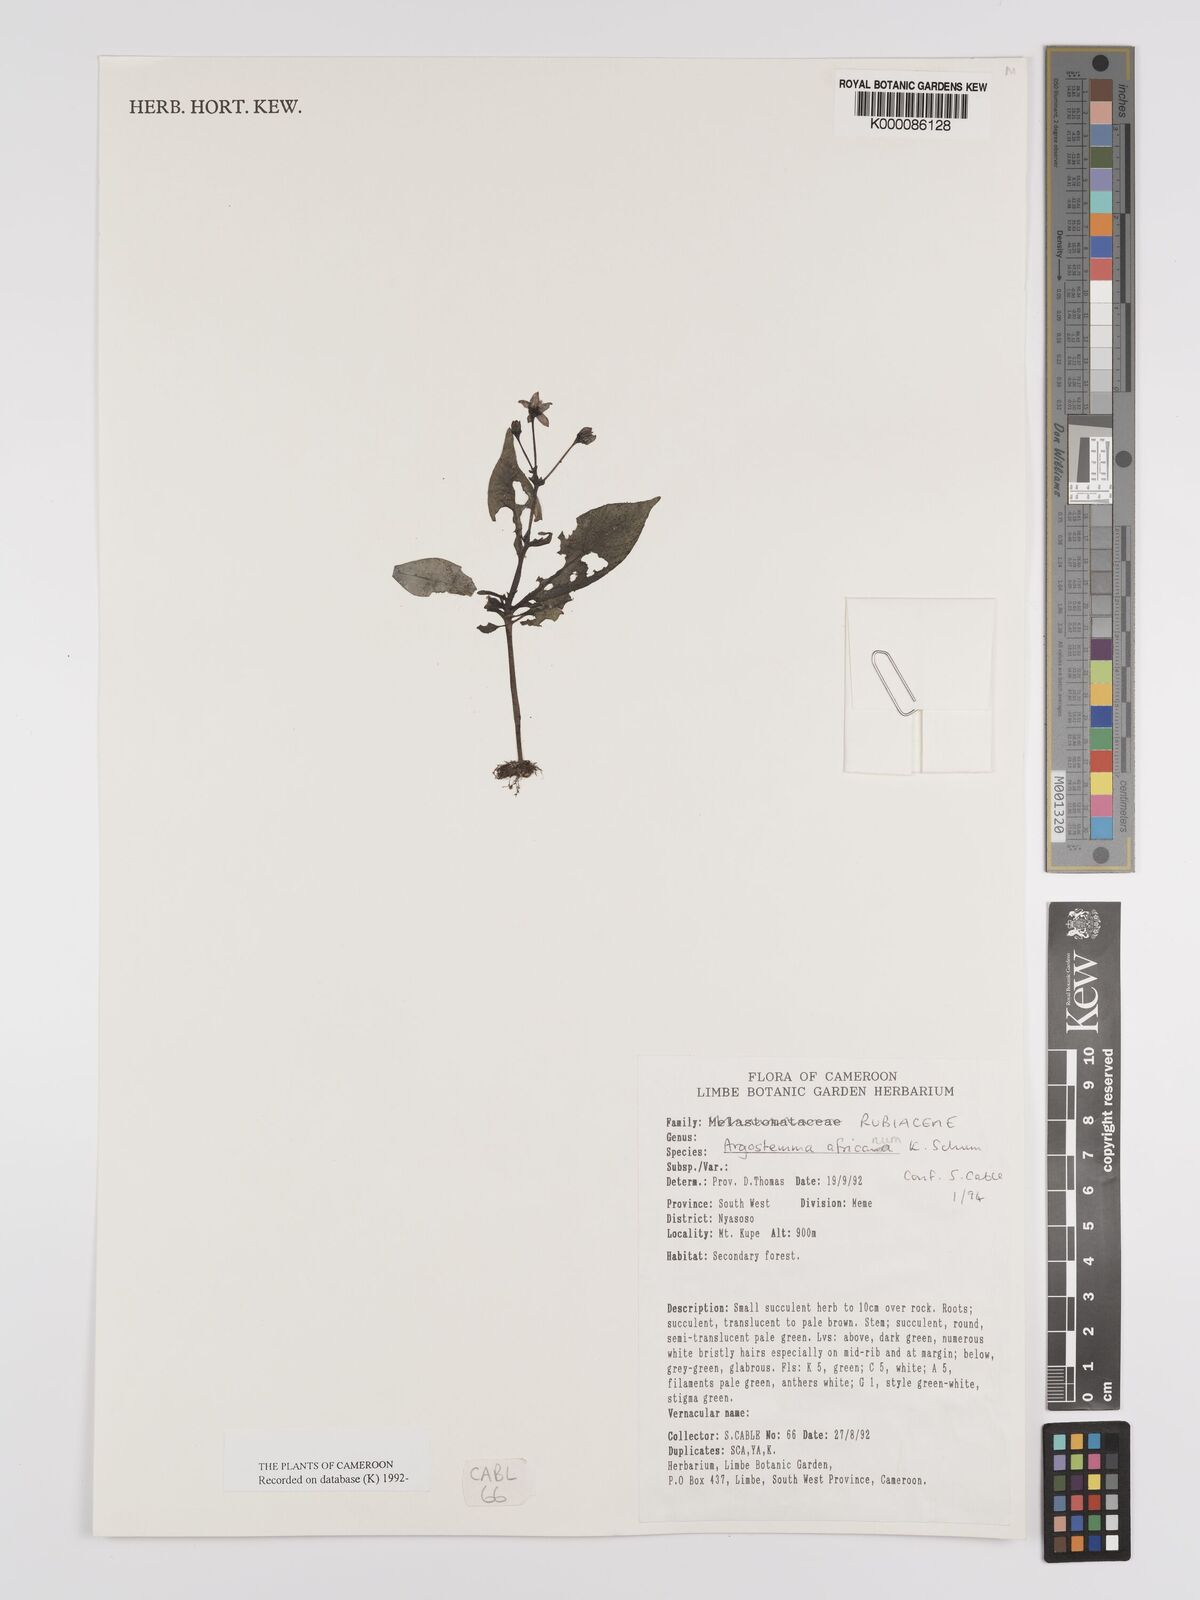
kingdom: Plantae
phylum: Tracheophyta
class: Magnoliopsida
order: Gentianales
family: Rubiaceae
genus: Argostemma
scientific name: Argostemma africanum
